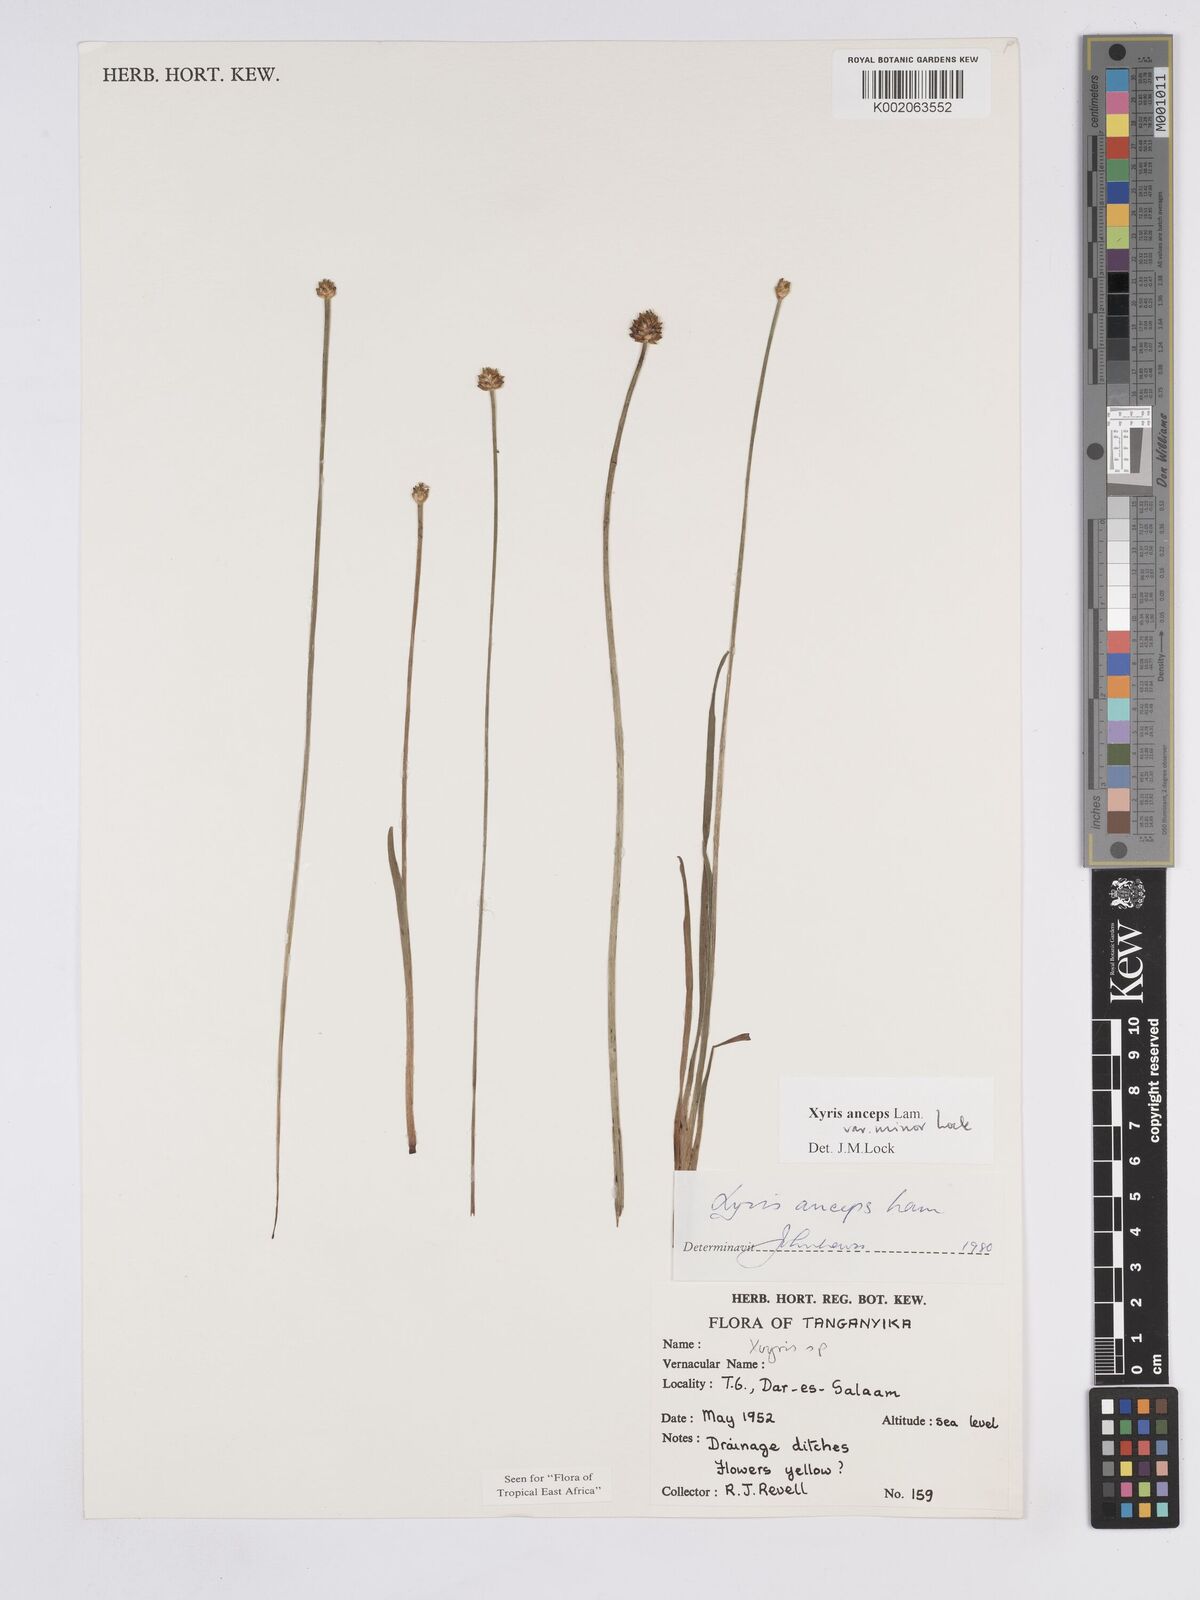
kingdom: Plantae
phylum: Tracheophyta
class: Liliopsida
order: Poales
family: Xyridaceae
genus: Xyris
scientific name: Xyris anceps
